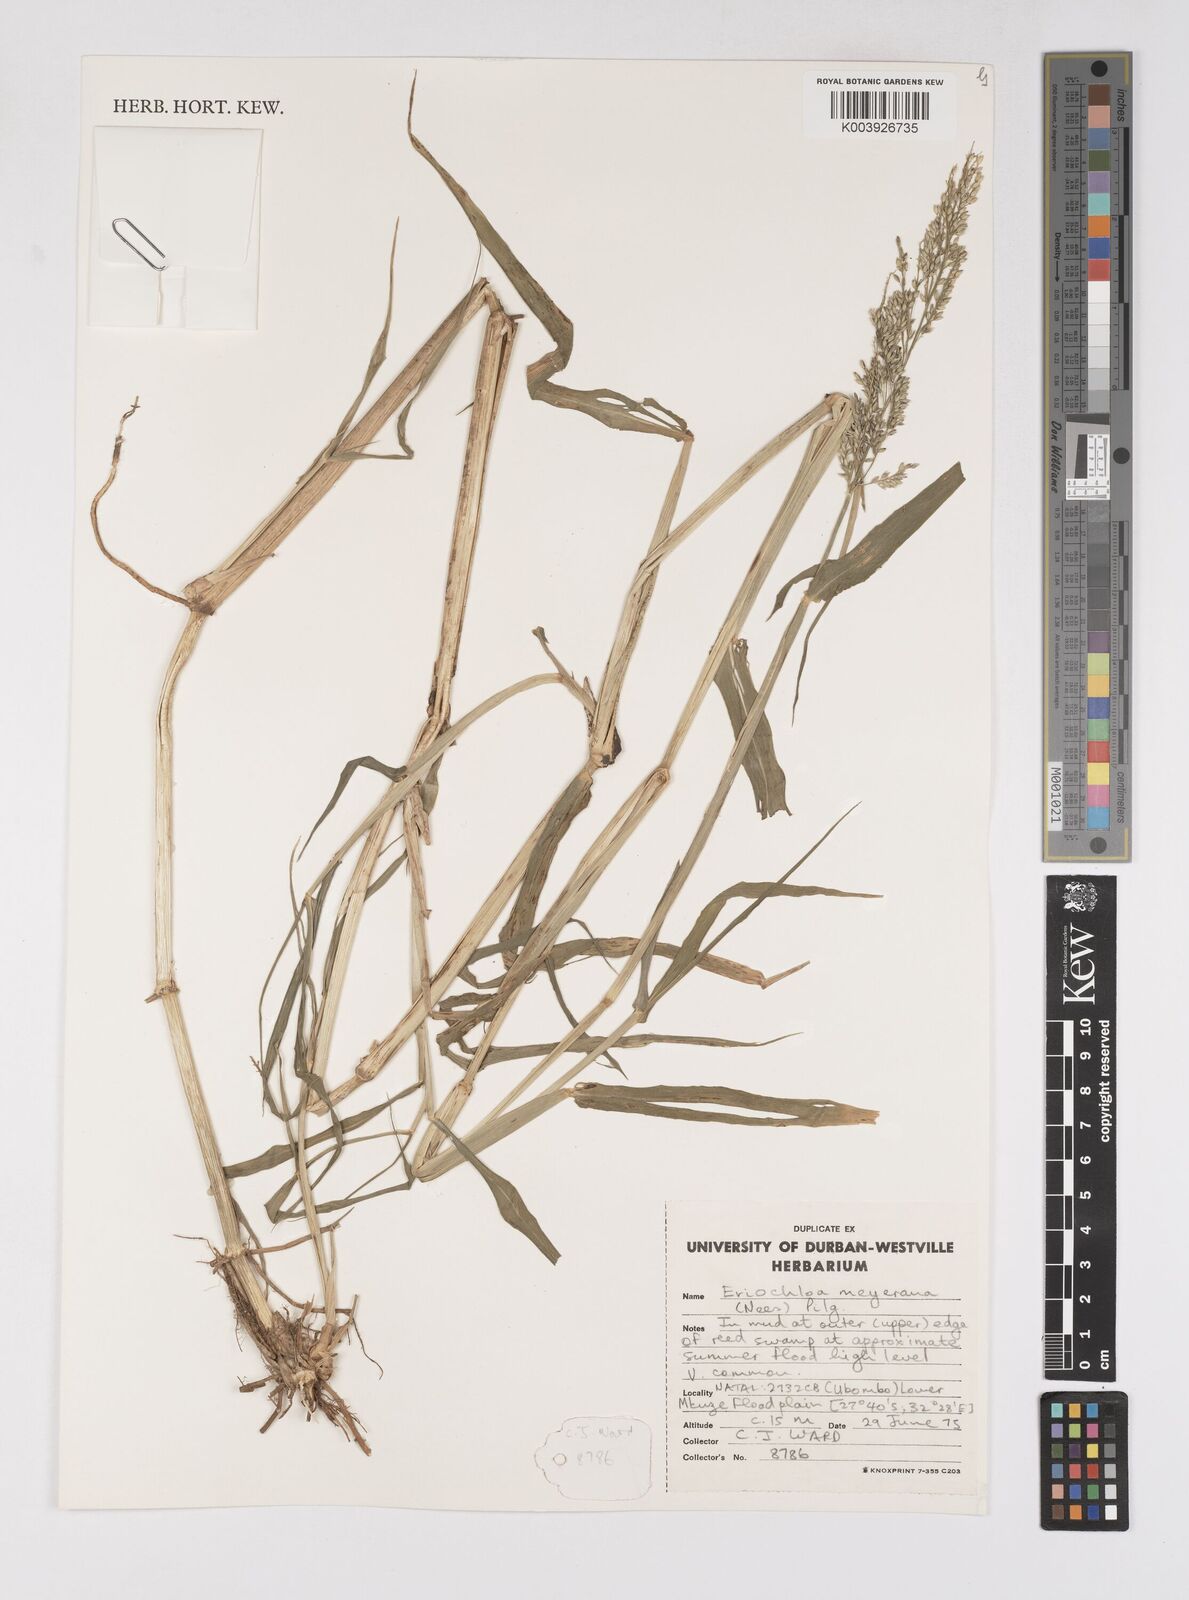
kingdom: Plantae
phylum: Tracheophyta
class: Liliopsida
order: Poales
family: Poaceae
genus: Eriochloa
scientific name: Eriochloa meyeriana
